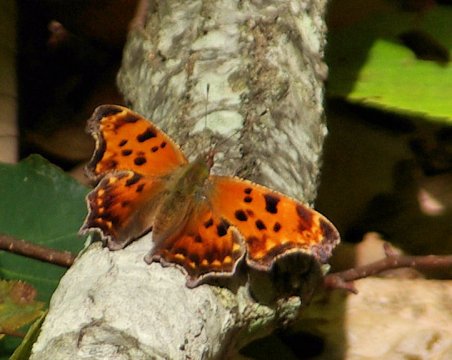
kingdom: Animalia
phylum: Arthropoda
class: Insecta
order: Lepidoptera
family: Nymphalidae
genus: Polygonia
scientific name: Polygonia comma
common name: Eastern Comma
